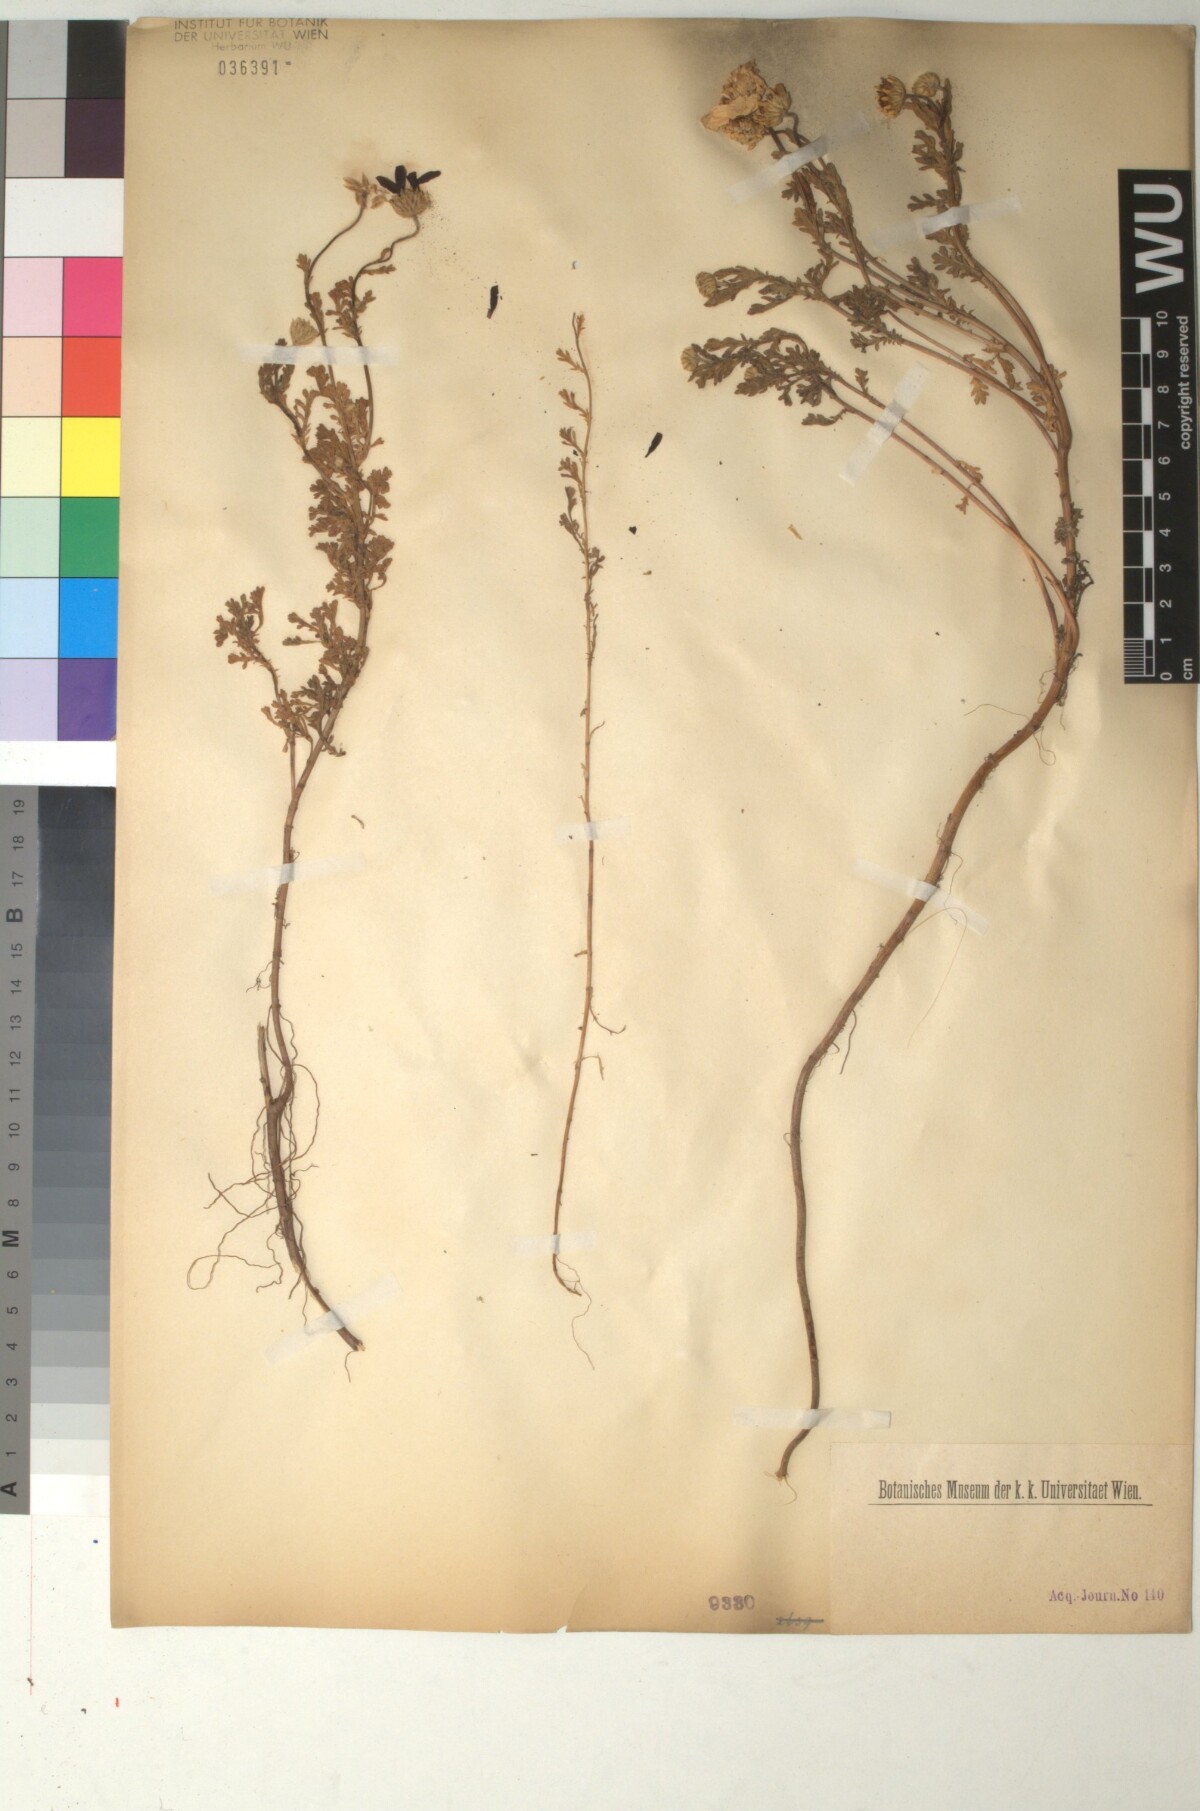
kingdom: Plantae
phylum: Tracheophyta
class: Magnoliopsida
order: Asterales
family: Asteraceae
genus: Anthemis
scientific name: Anthemis maritima
